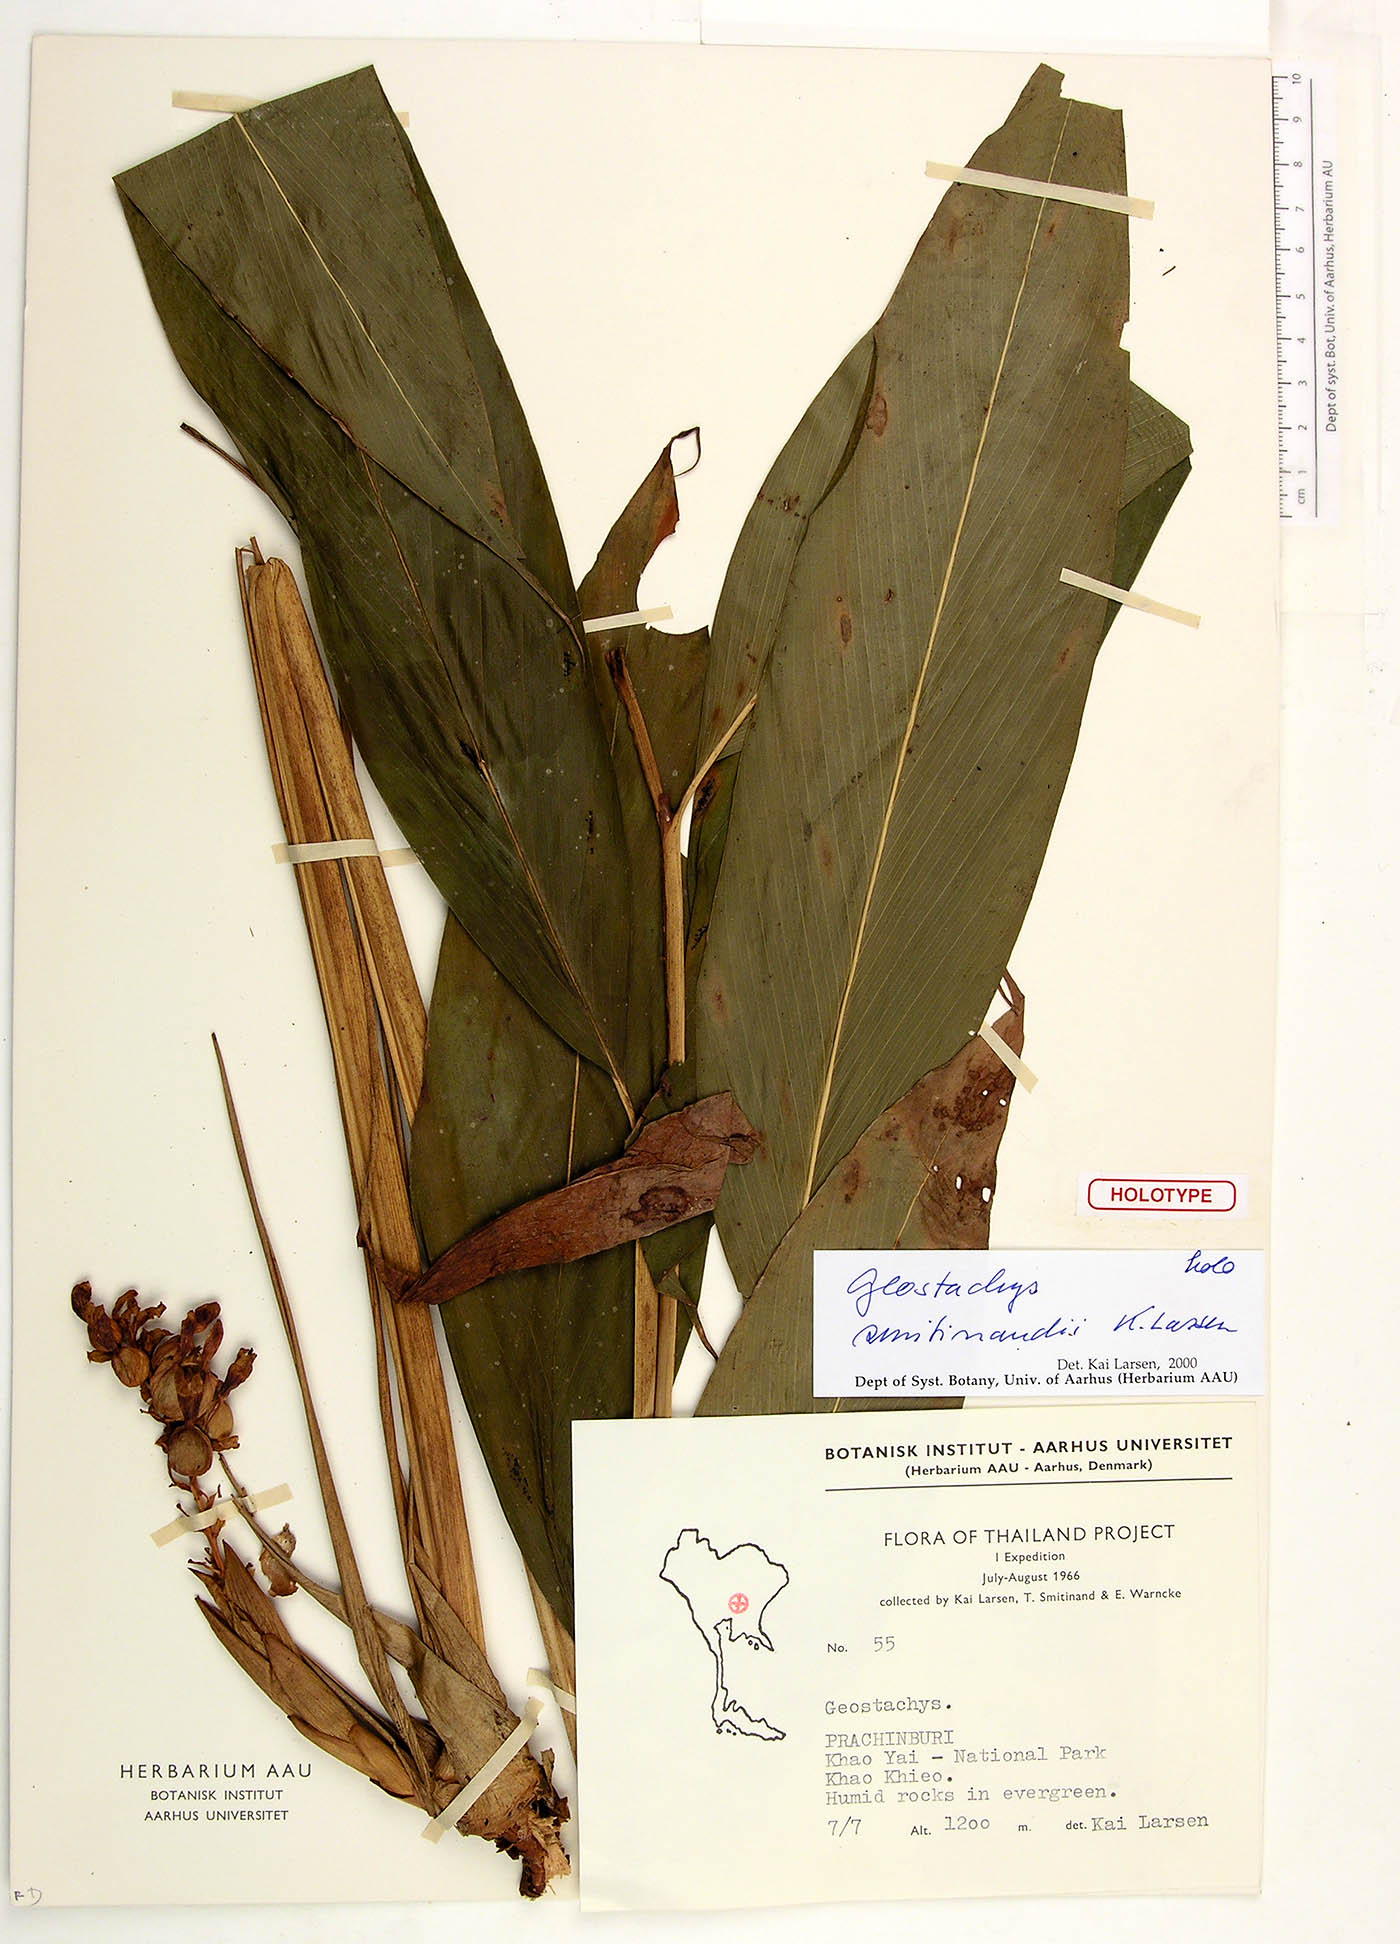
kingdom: Plantae
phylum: Tracheophyta
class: Liliopsida
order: Zingiberales
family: Zingiberaceae
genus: Geostachys
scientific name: Geostachys smitinandii
